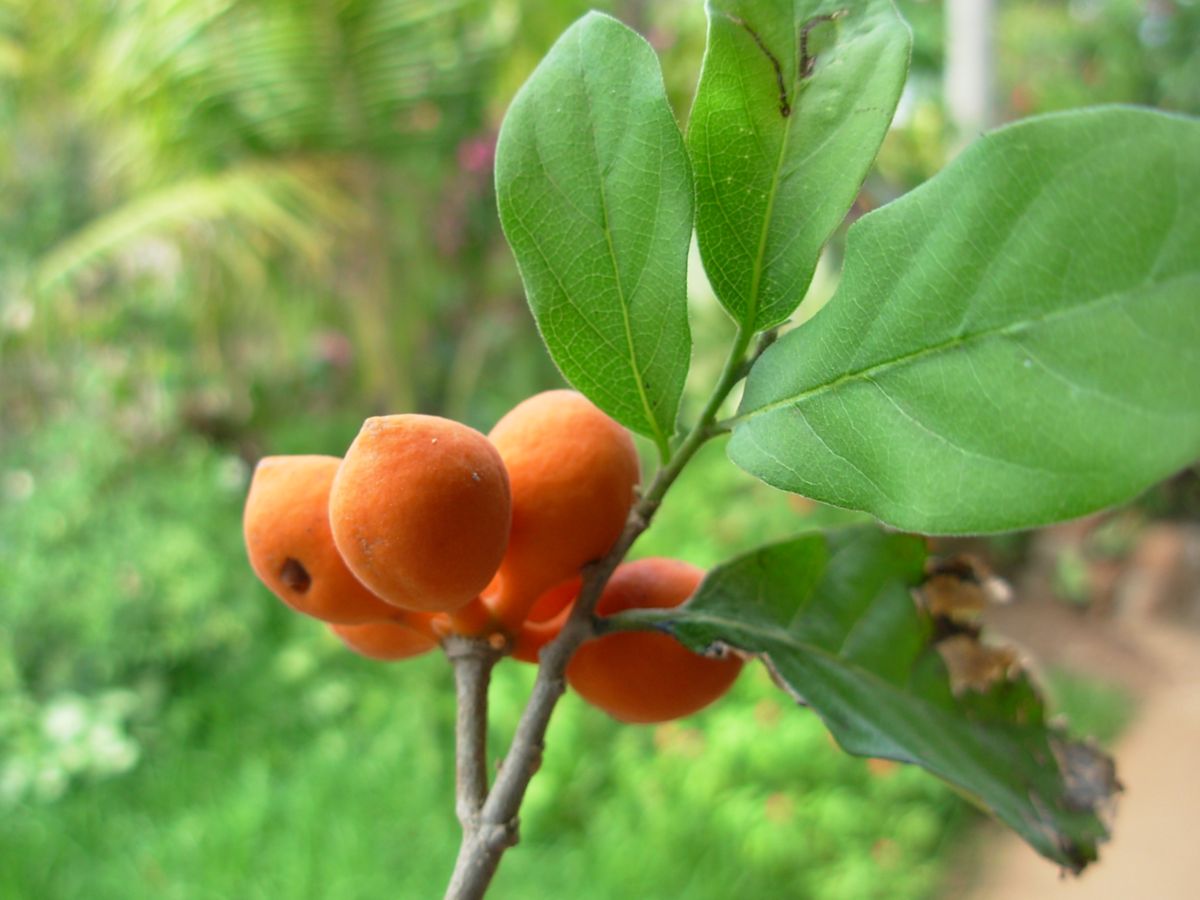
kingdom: Plantae
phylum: Tracheophyta
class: Magnoliopsida
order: Magnoliales
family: Annonaceae
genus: Sapranthus
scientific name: Sapranthus microcarpus
